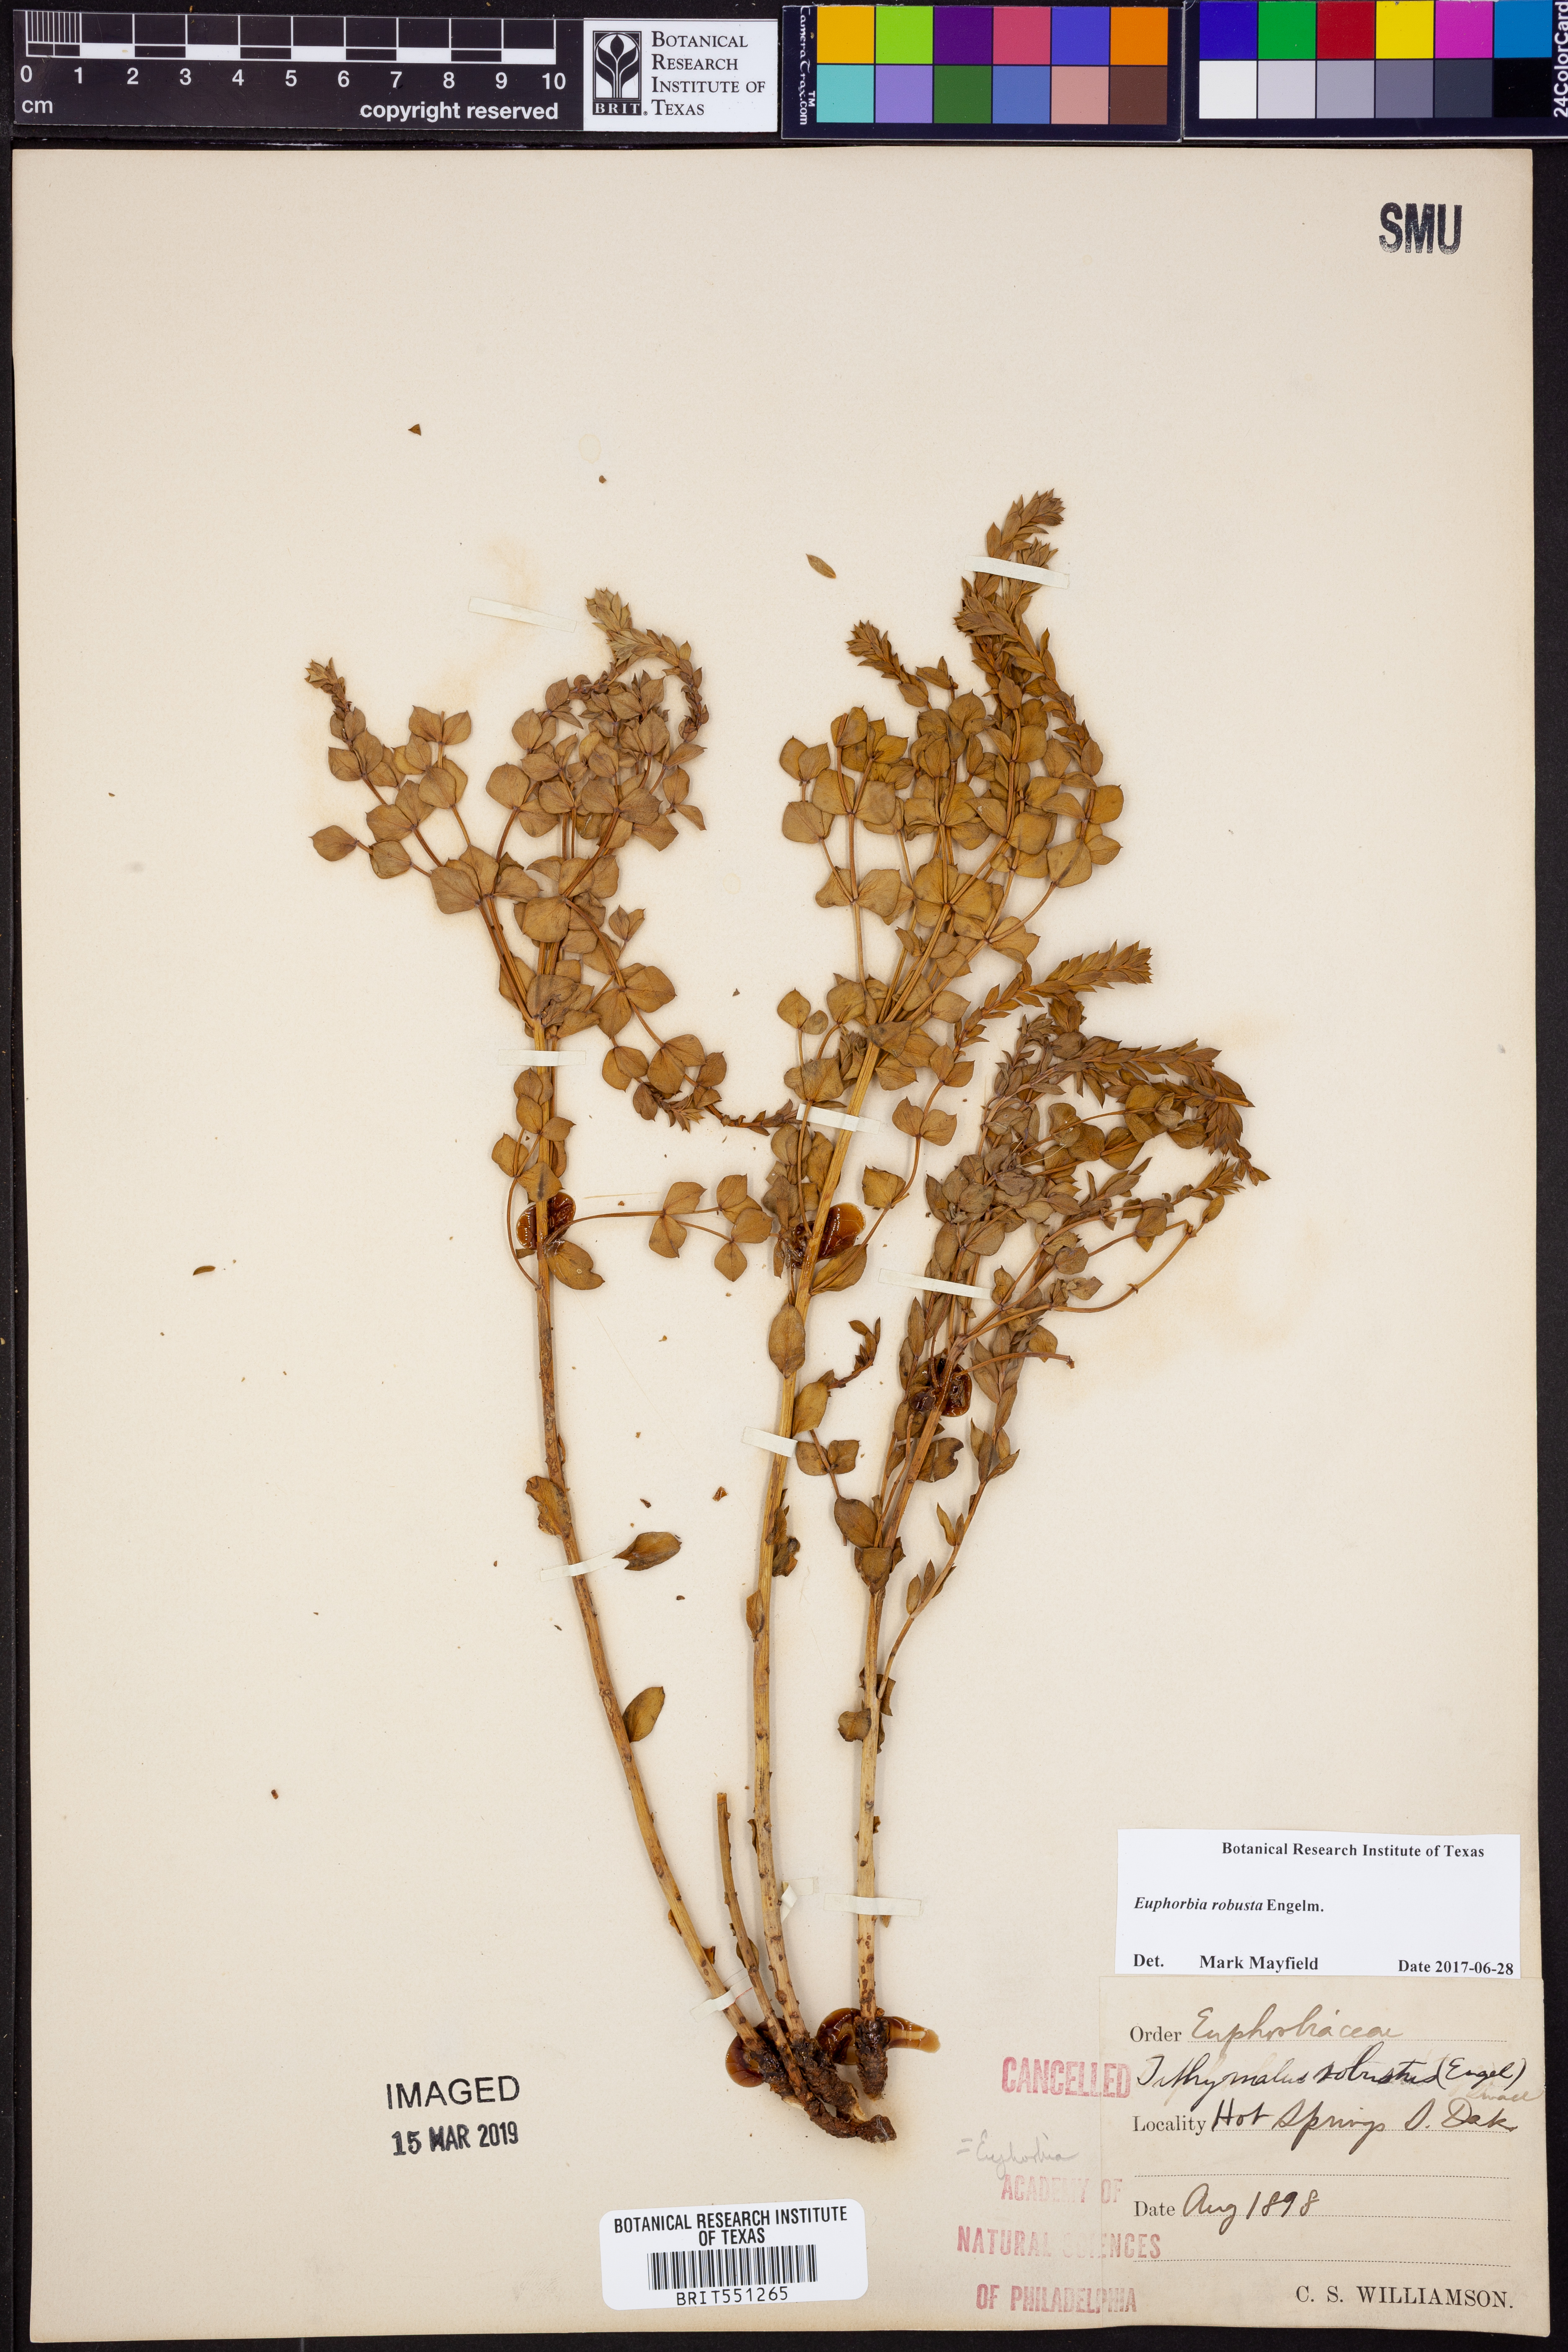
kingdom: Plantae
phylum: Tracheophyta
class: Magnoliopsida
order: Malpighiales
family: Euphorbiaceae
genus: Euphorbia
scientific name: Euphorbia brachycera
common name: Shorthorn spurge
